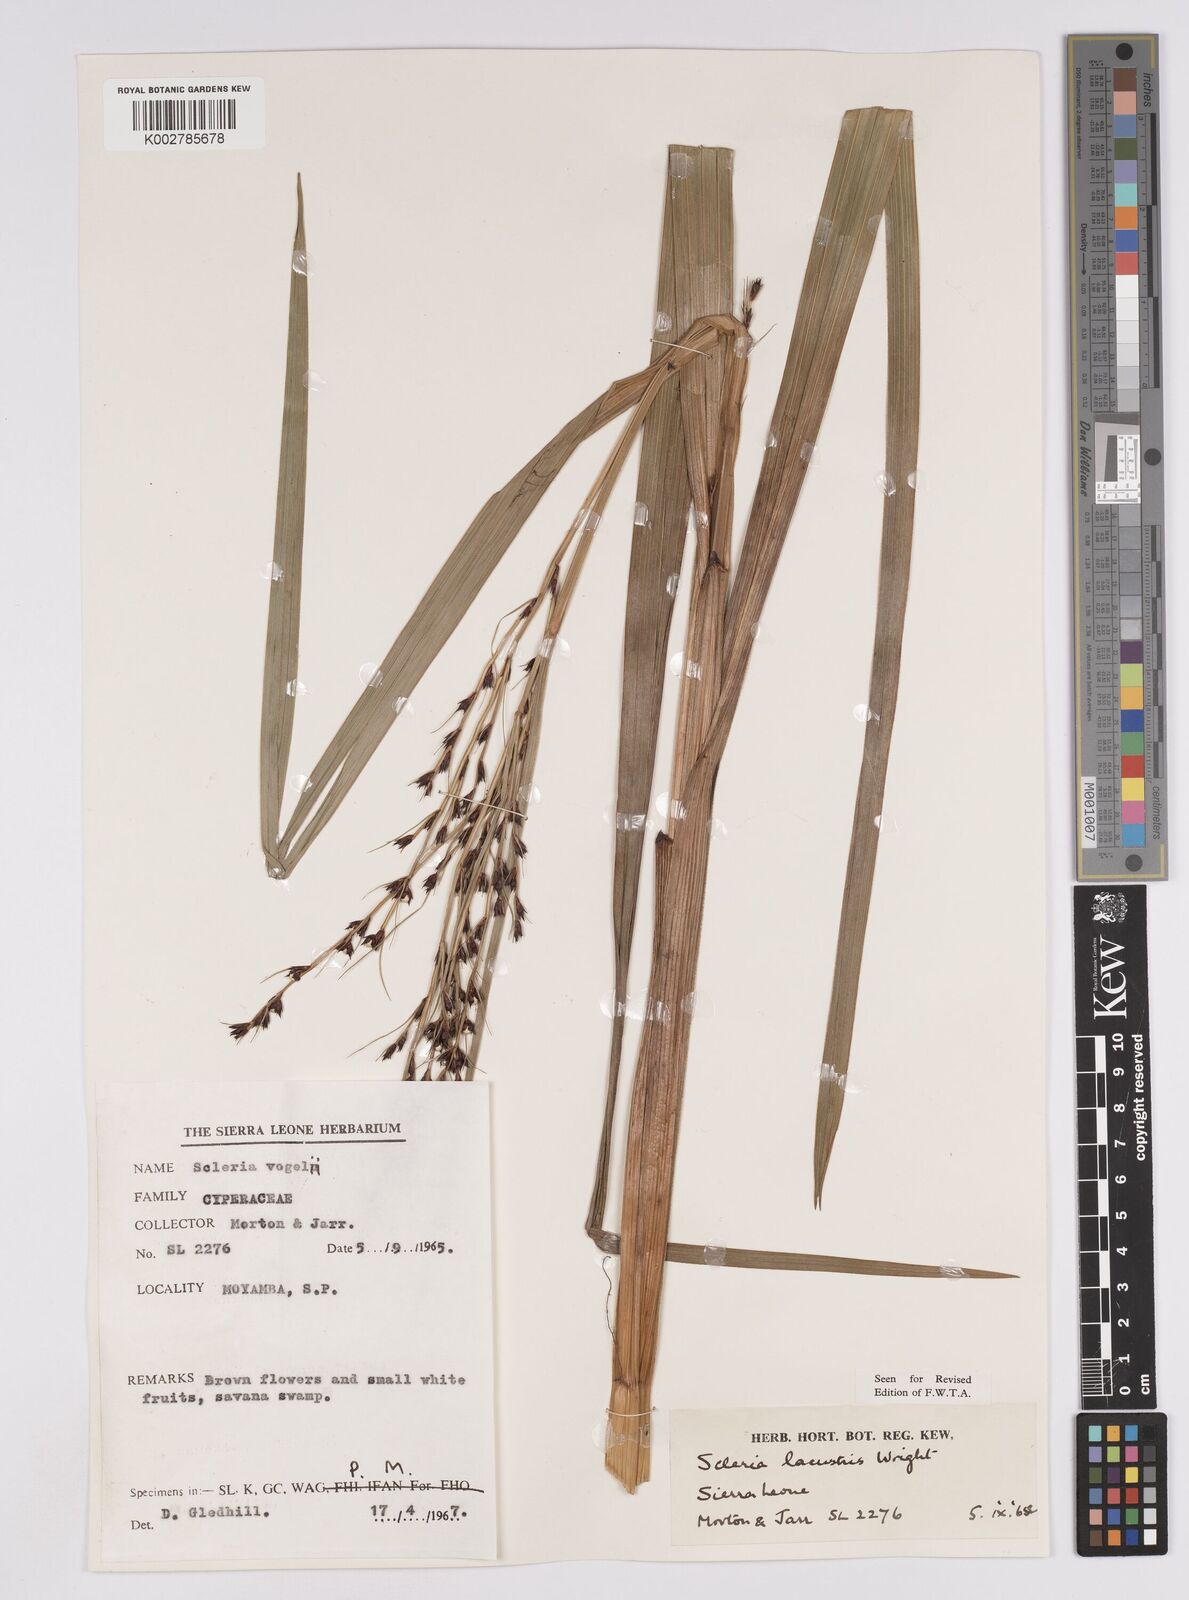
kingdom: Plantae
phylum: Tracheophyta
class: Liliopsida
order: Poales
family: Cyperaceae
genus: Scleria
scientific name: Scleria lacustris
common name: Lakeshore nutrush
